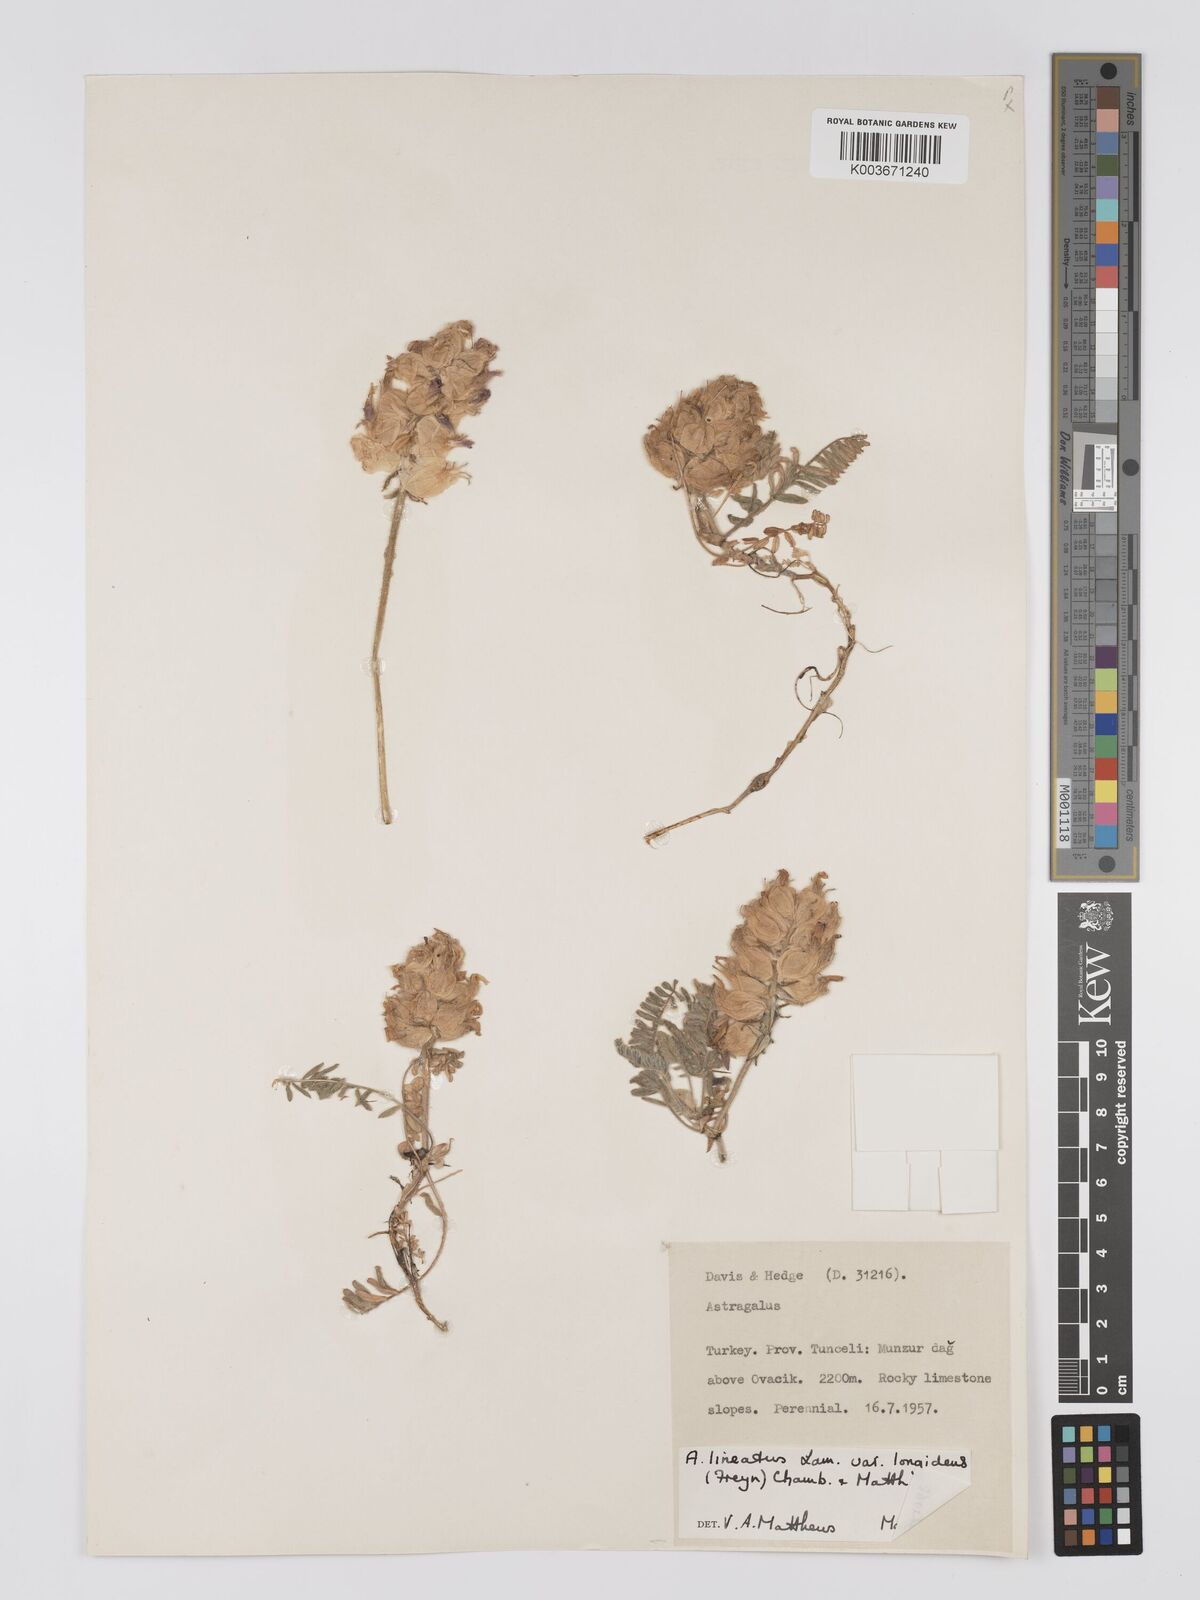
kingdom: Plantae
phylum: Tracheophyta
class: Magnoliopsida
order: Fabales
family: Fabaceae
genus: Astragalus
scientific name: Astragalus lineatus
